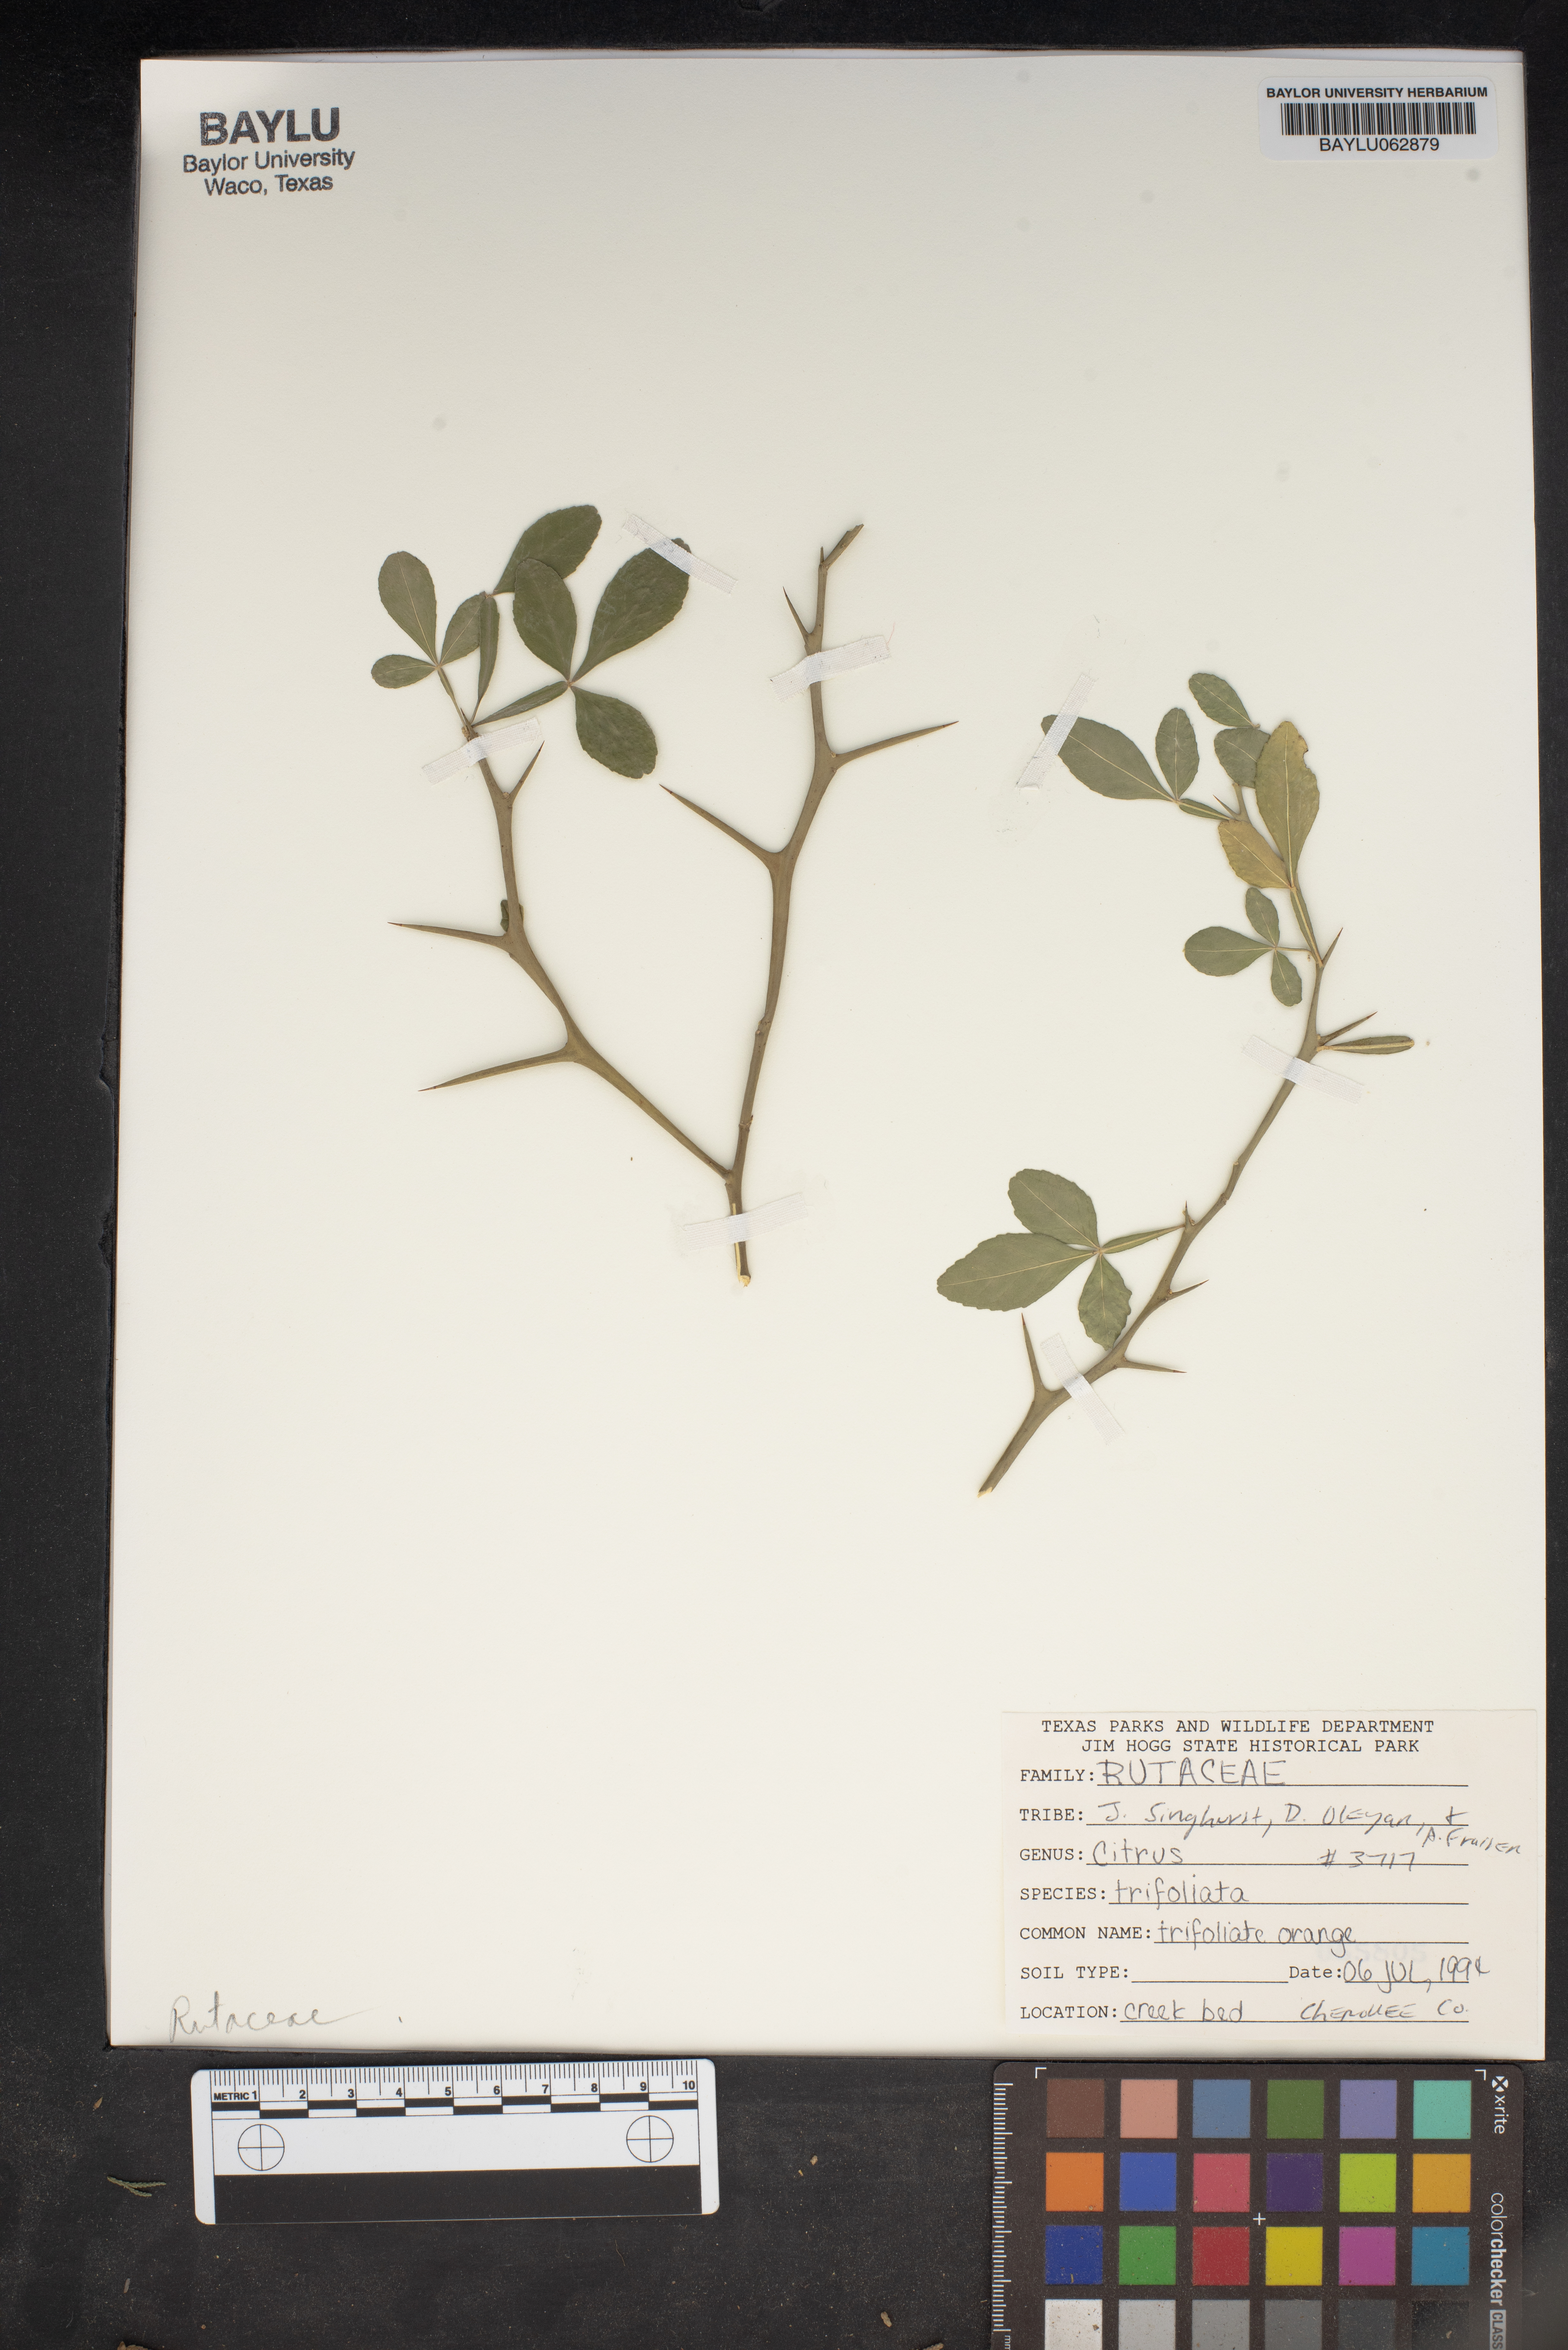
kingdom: Plantae
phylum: Tracheophyta
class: Magnoliopsida
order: Sapindales
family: Rutaceae
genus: Citrus
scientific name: Citrus trifoliata
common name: Japanese bitter-orange
